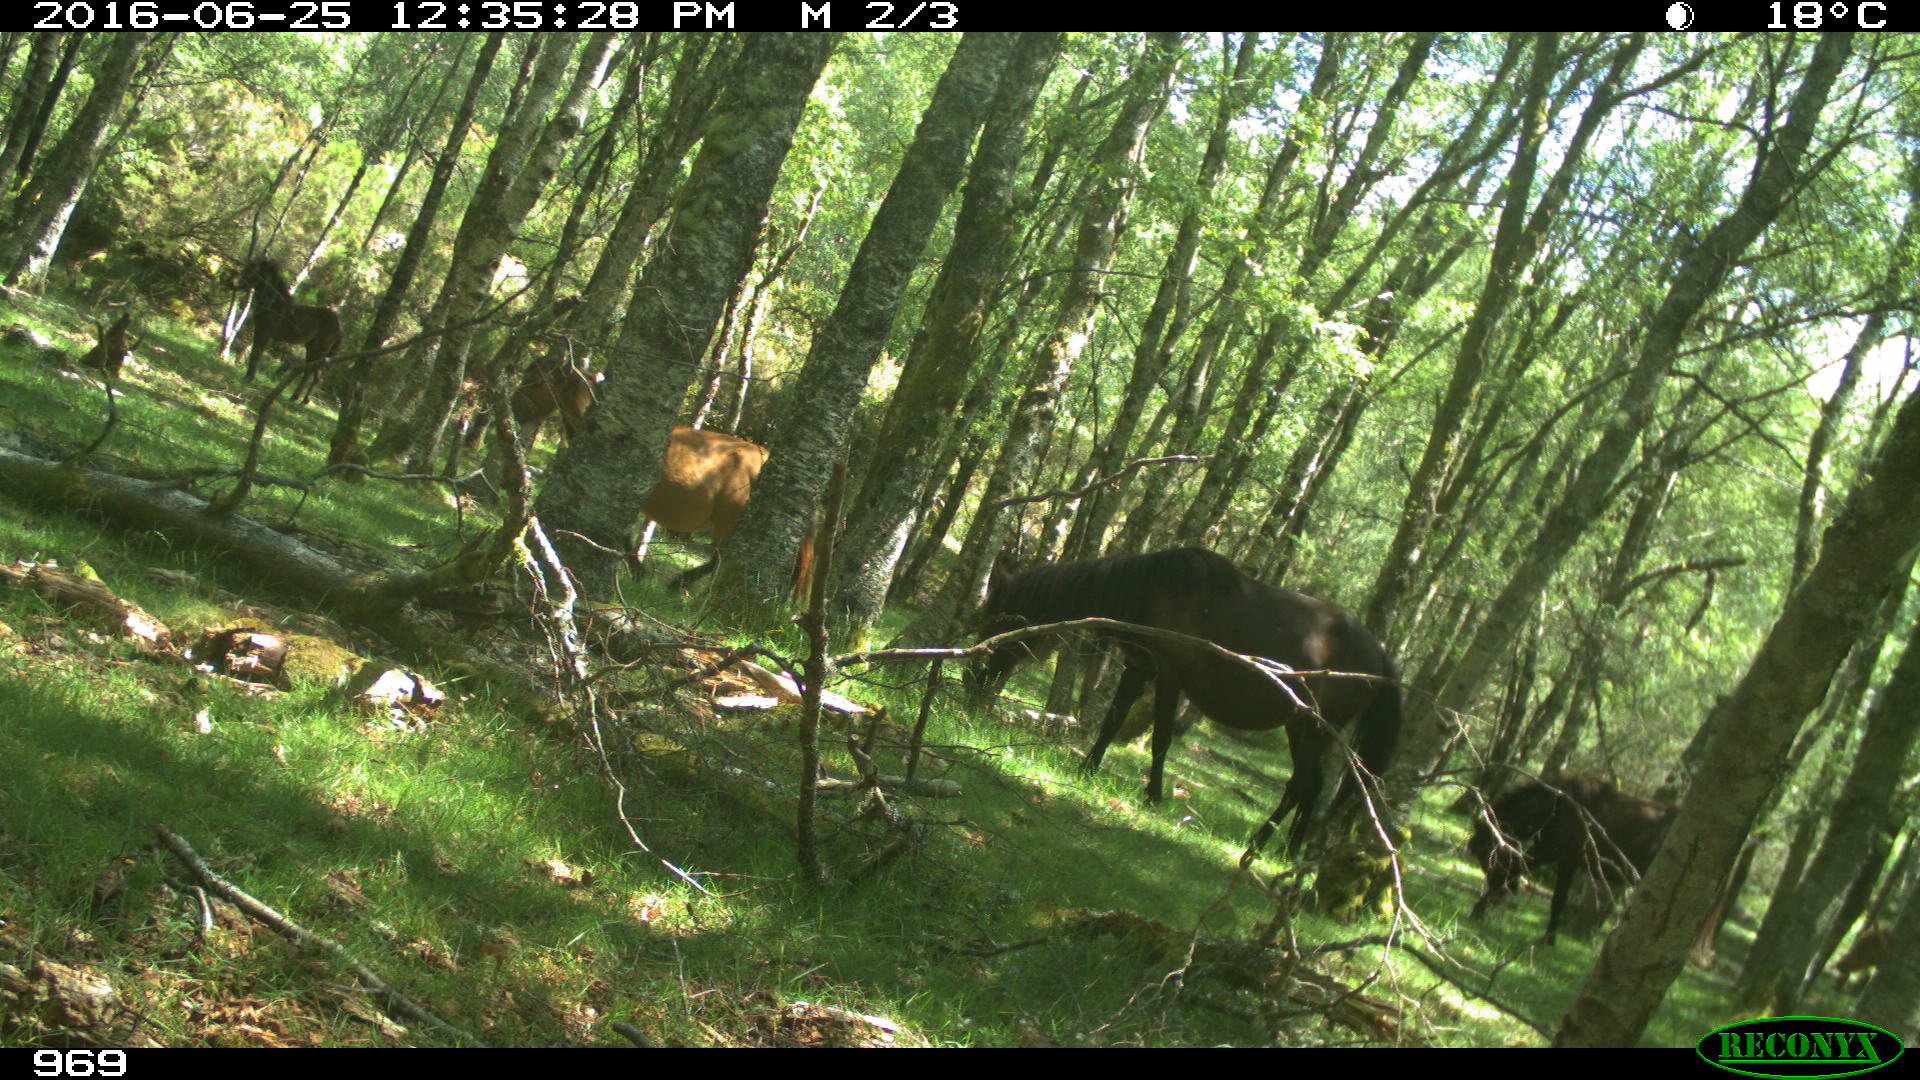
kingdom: Animalia
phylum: Chordata
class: Mammalia
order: Perissodactyla
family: Equidae
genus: Equus
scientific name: Equus caballus
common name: Horse
